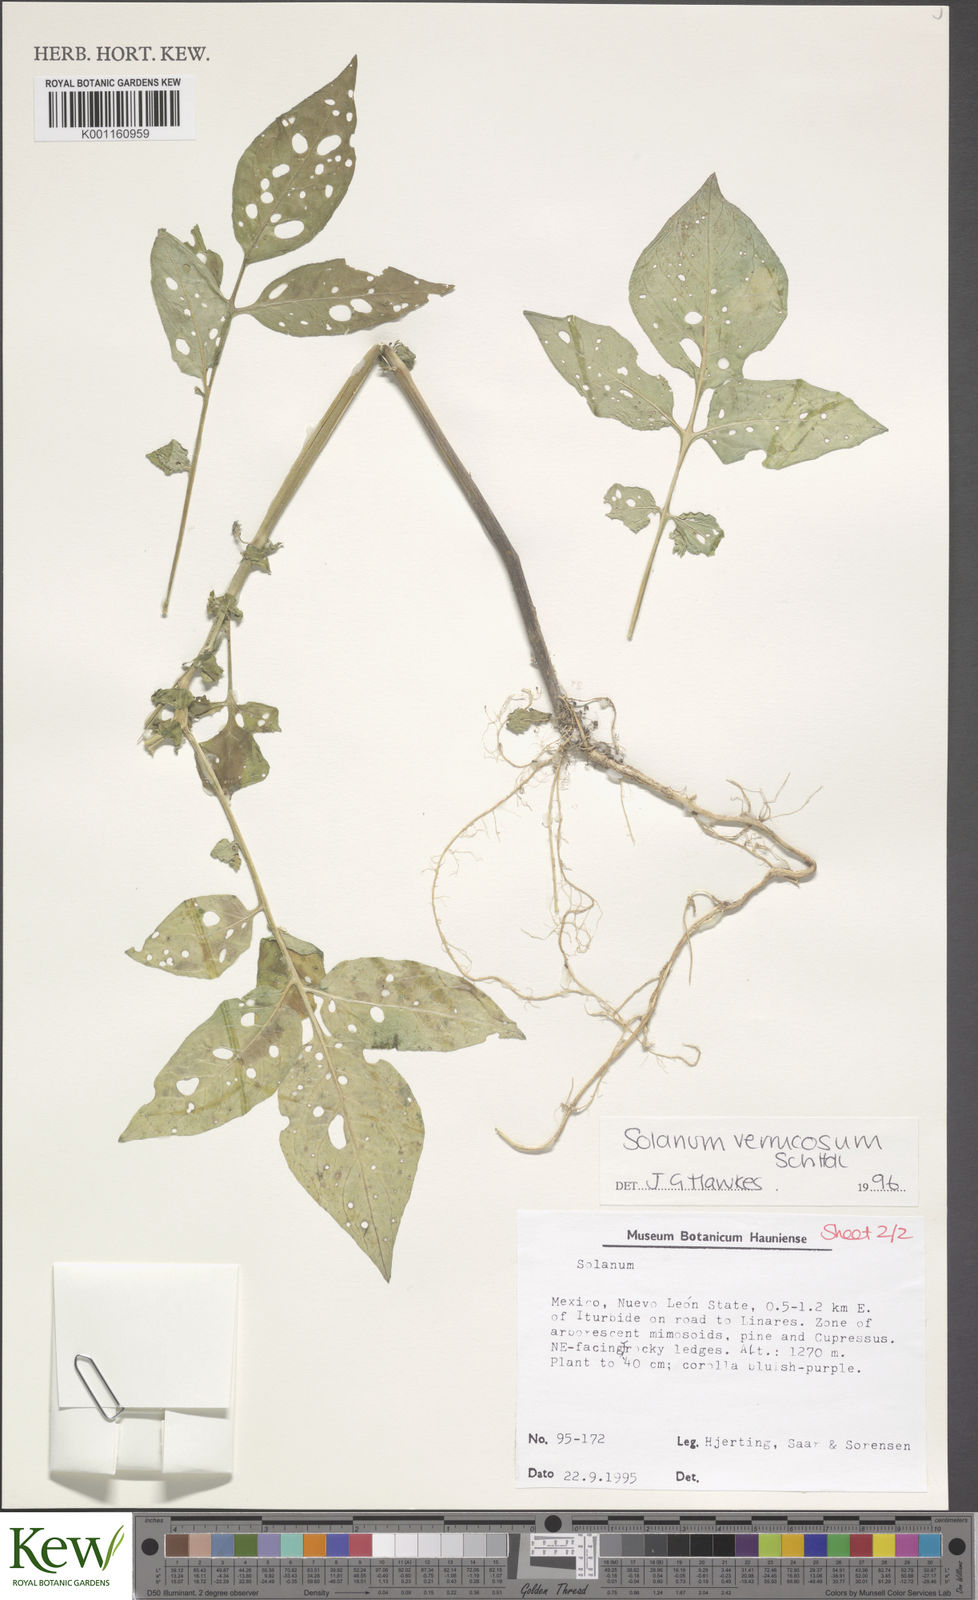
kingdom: Plantae
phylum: Tracheophyta
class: Magnoliopsida
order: Solanales
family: Solanaceae
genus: Solanum
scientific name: Solanum verrucosum
